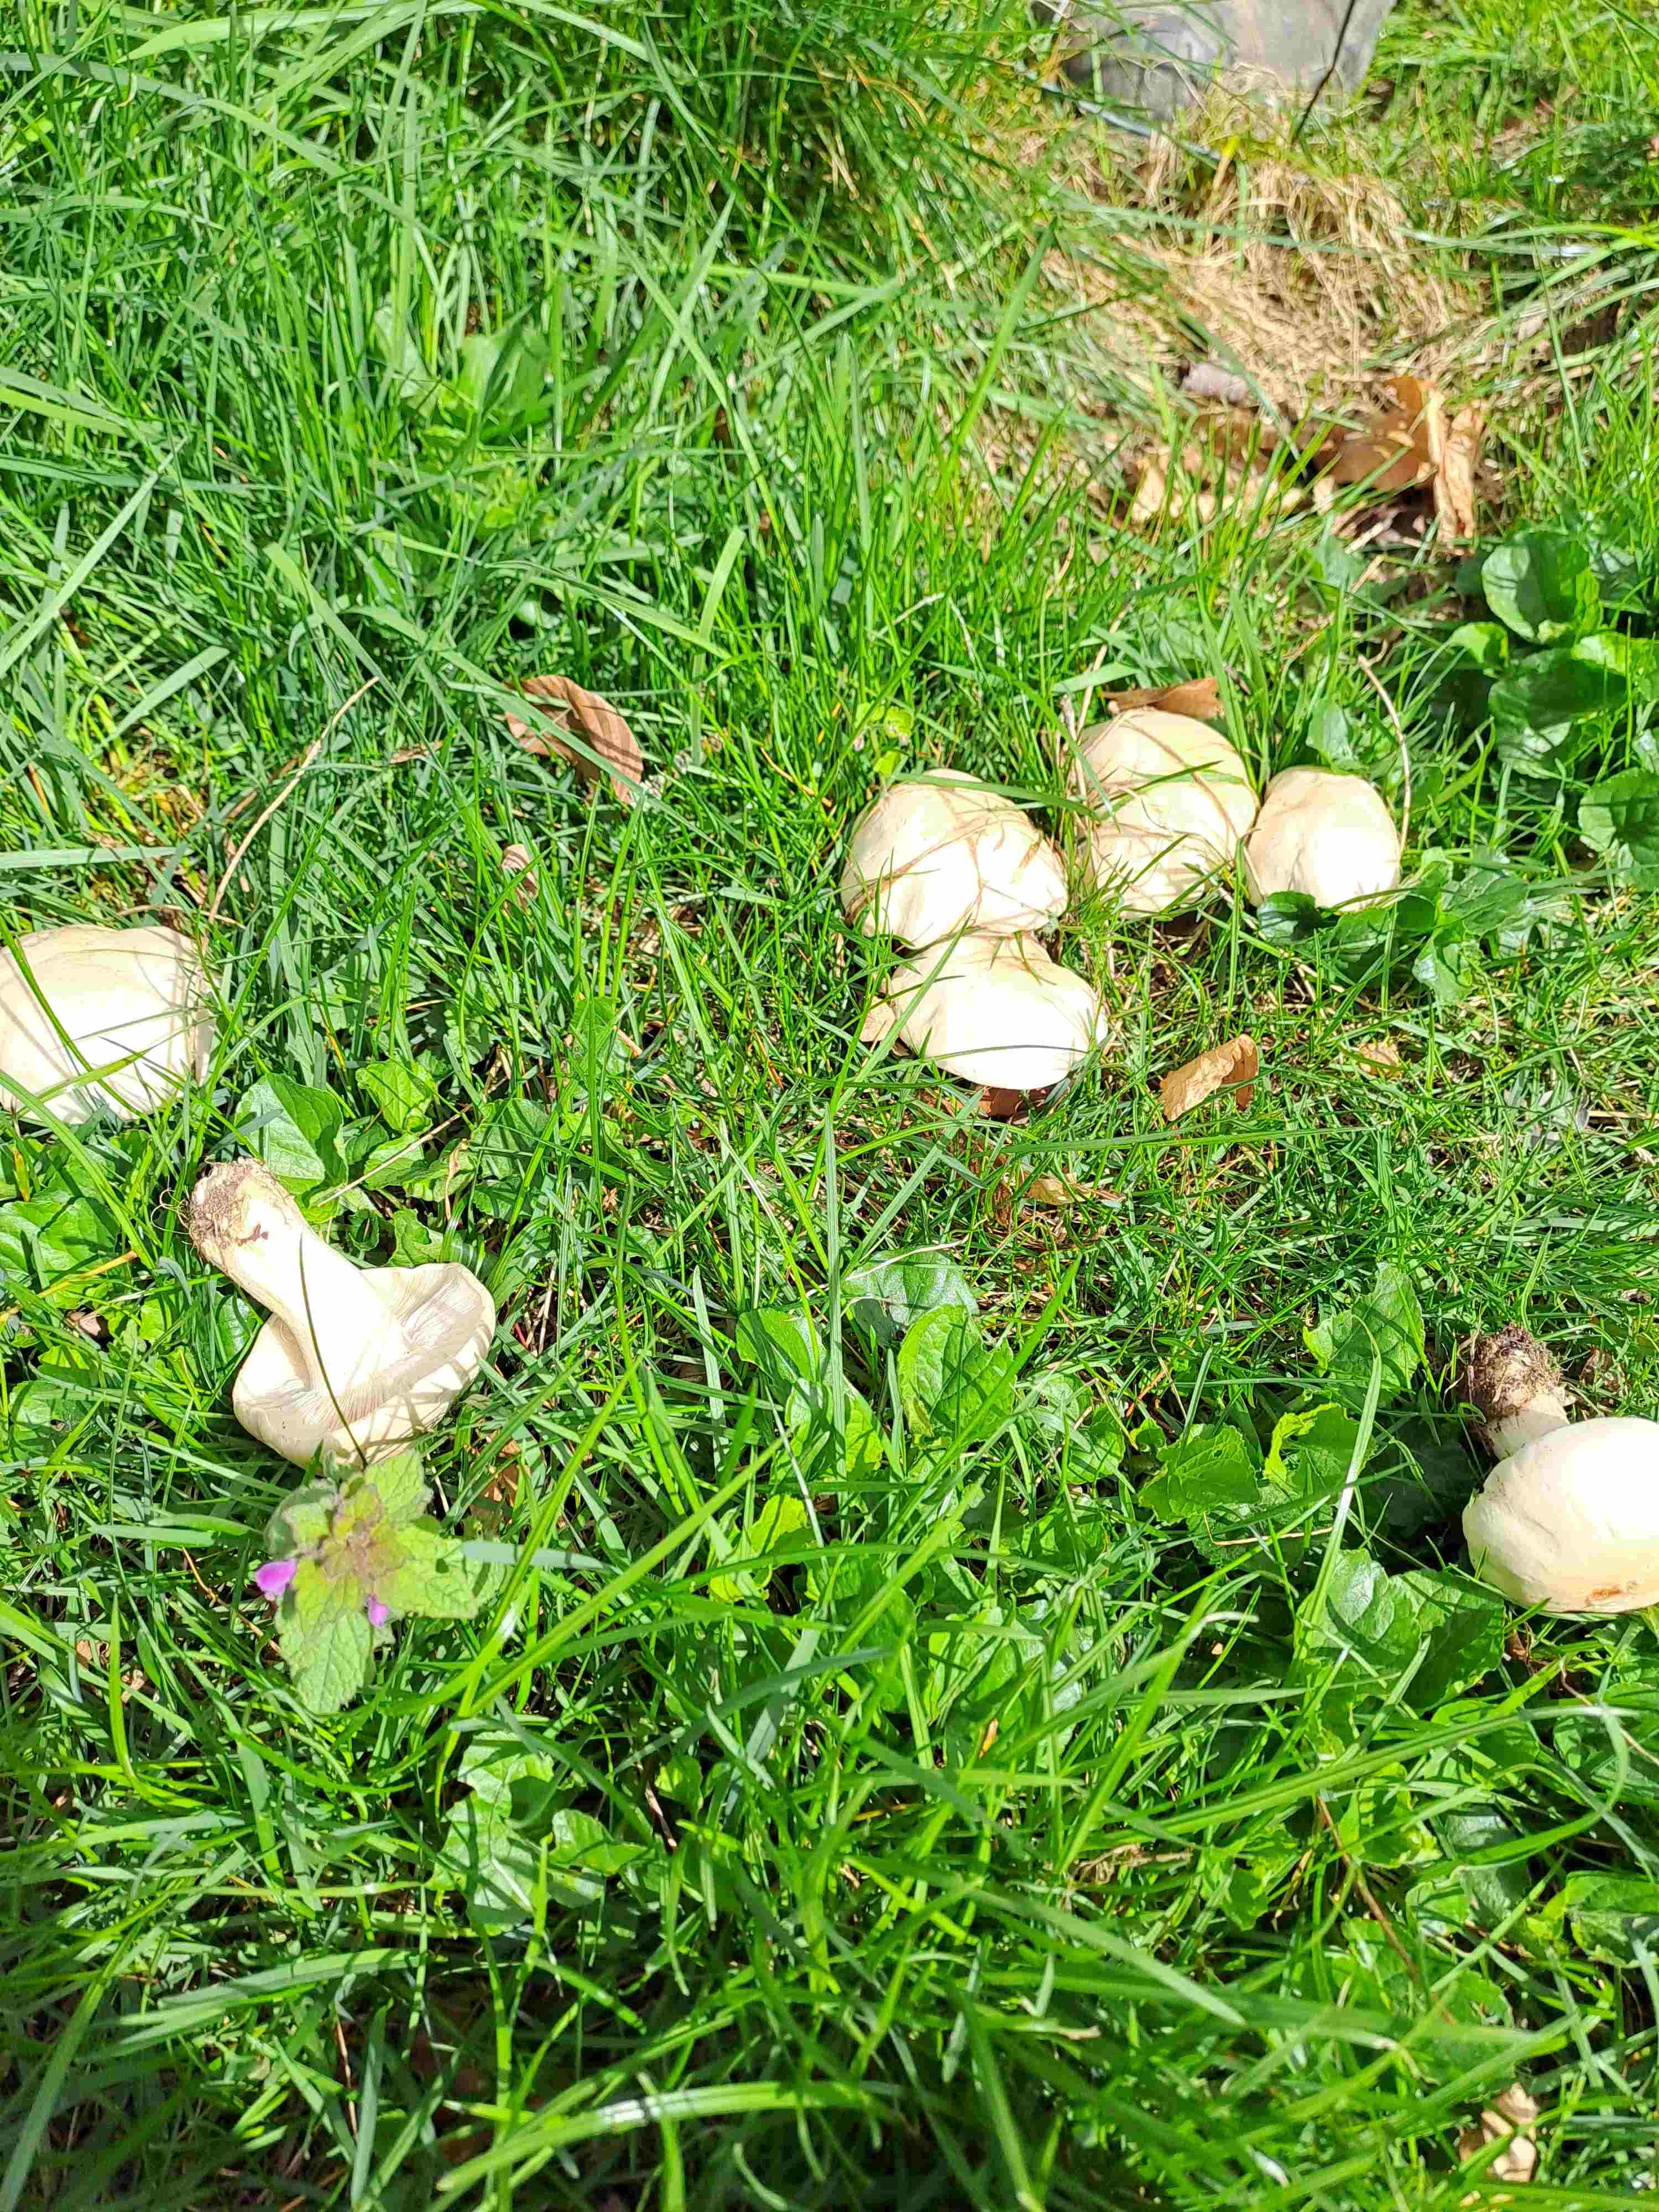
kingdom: Fungi
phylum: Basidiomycota
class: Agaricomycetes
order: Agaricales
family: Lyophyllaceae
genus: Calocybe
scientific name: Calocybe gambosa
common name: vårmusseron
